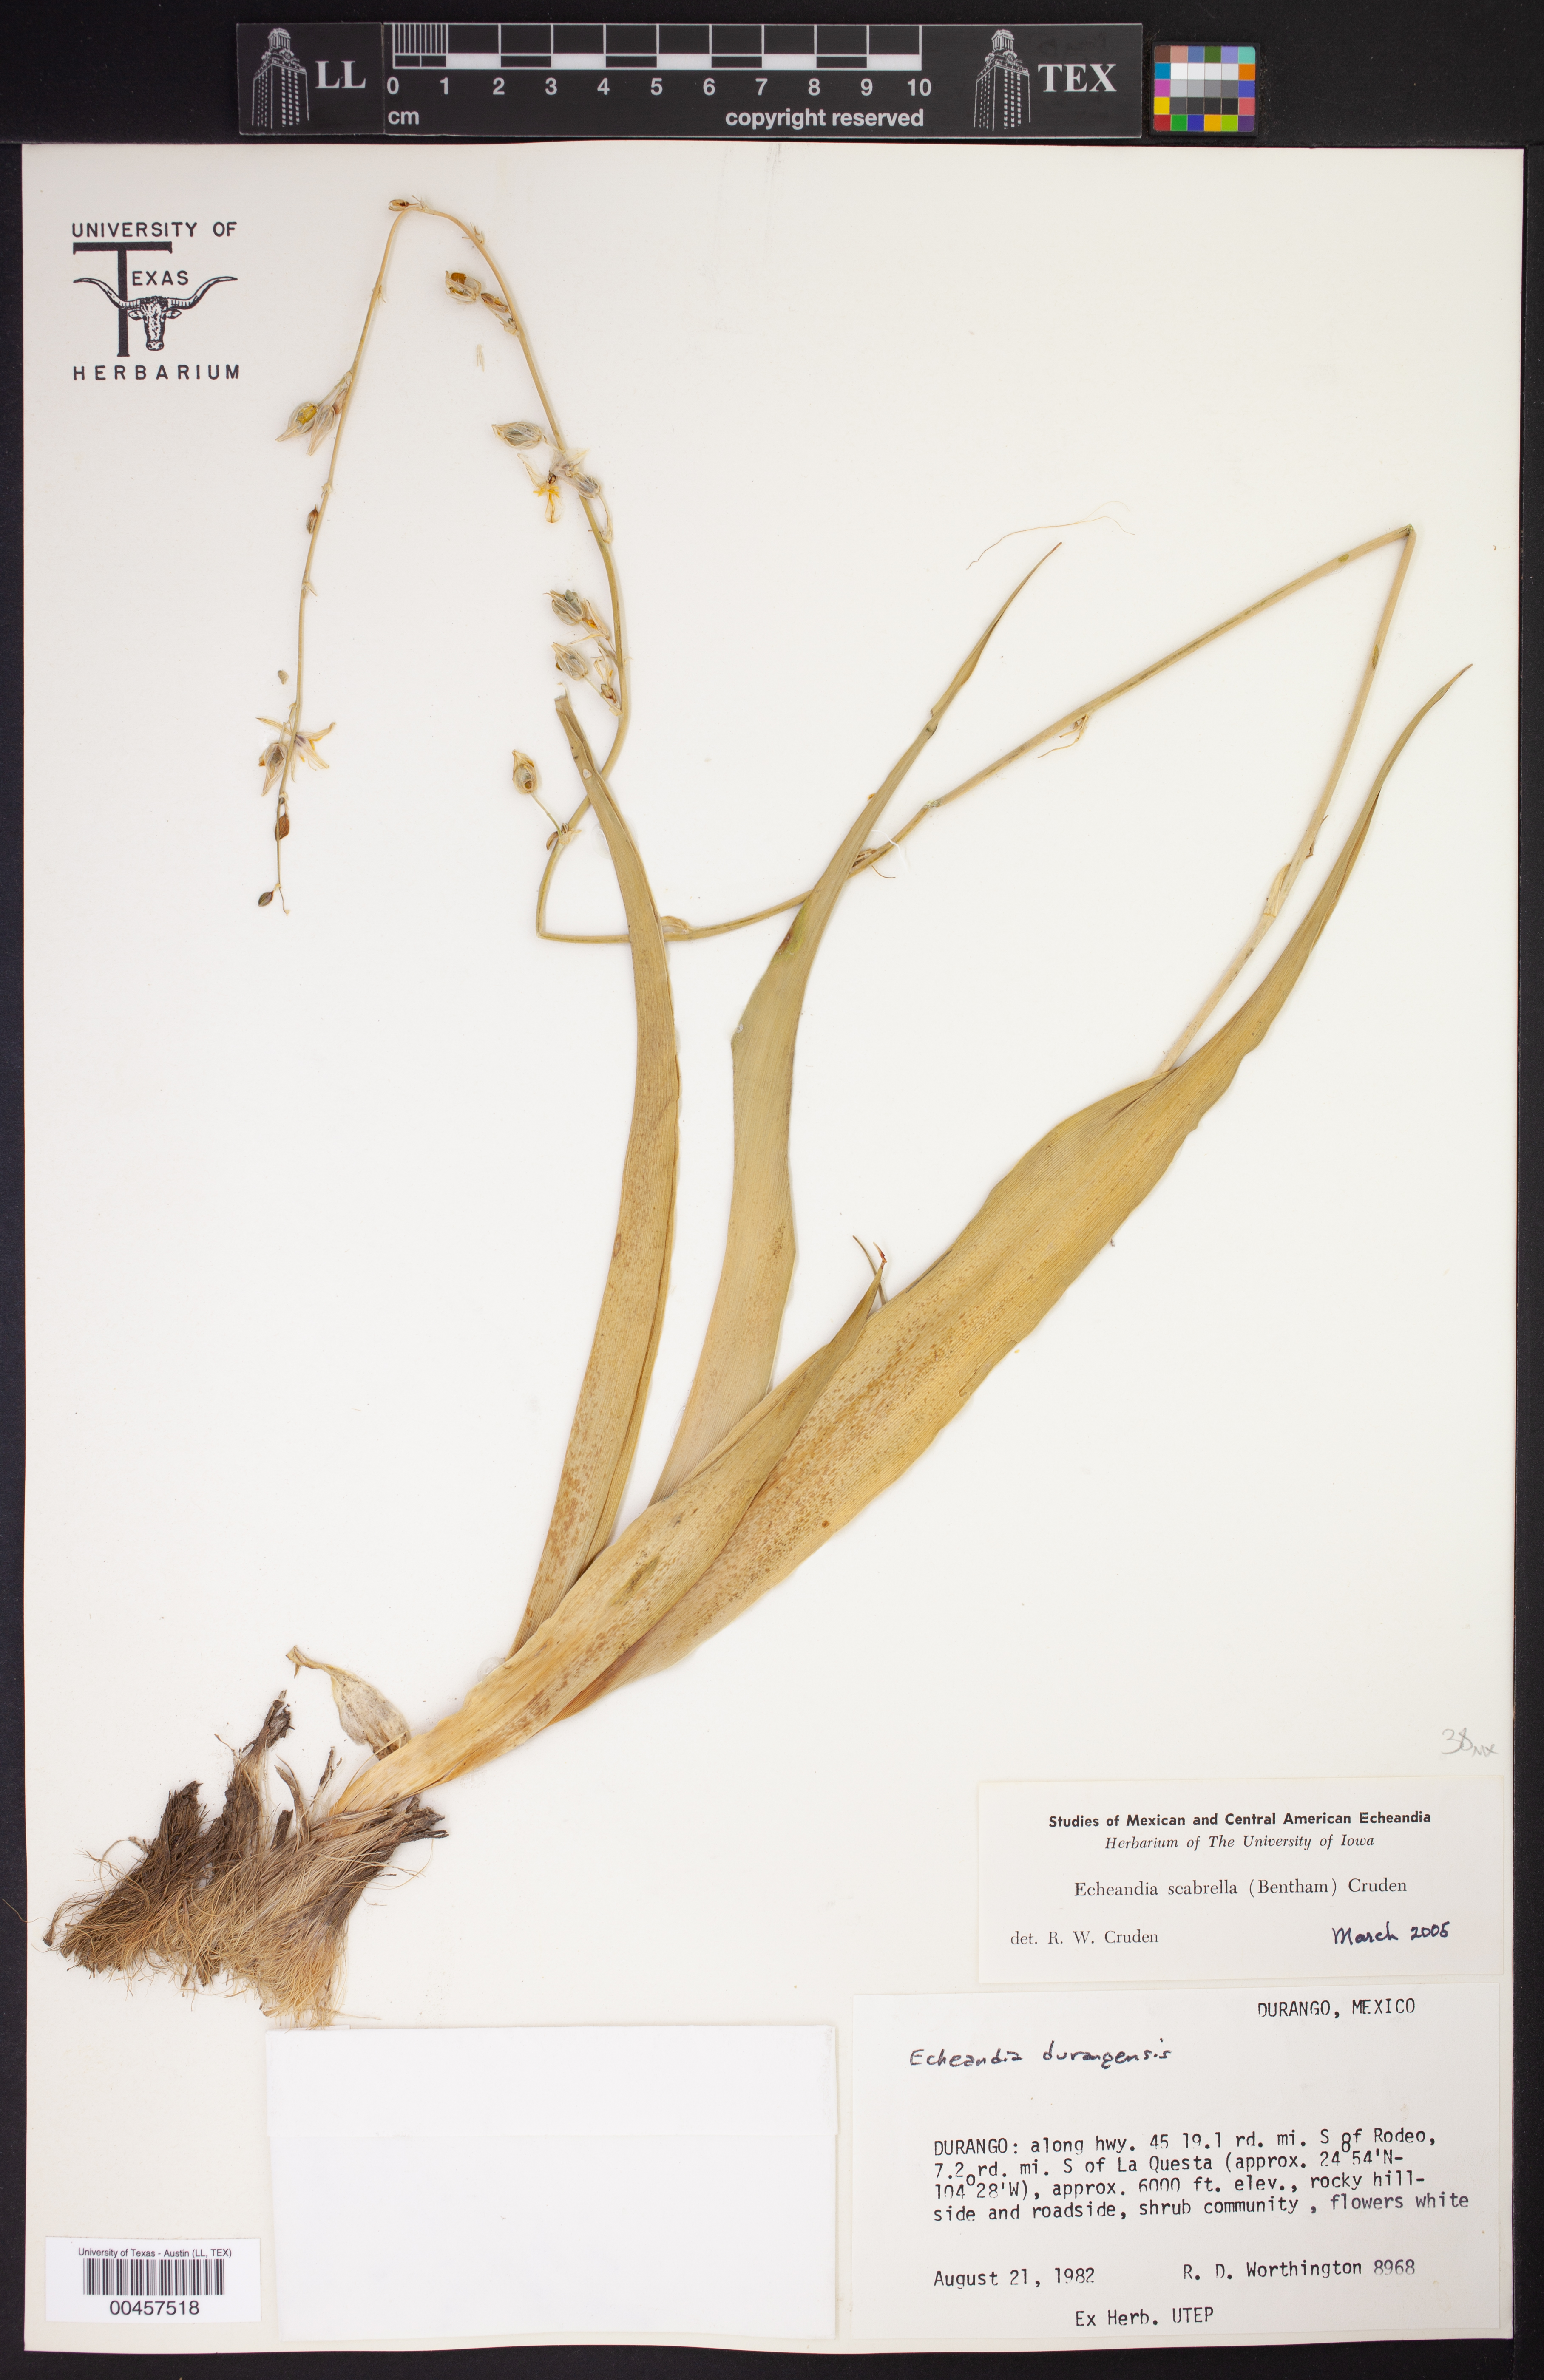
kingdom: Plantae
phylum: Tracheophyta
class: Liliopsida
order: Asparagales
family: Asparagaceae
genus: Echeandia
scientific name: Echeandia scabrella
